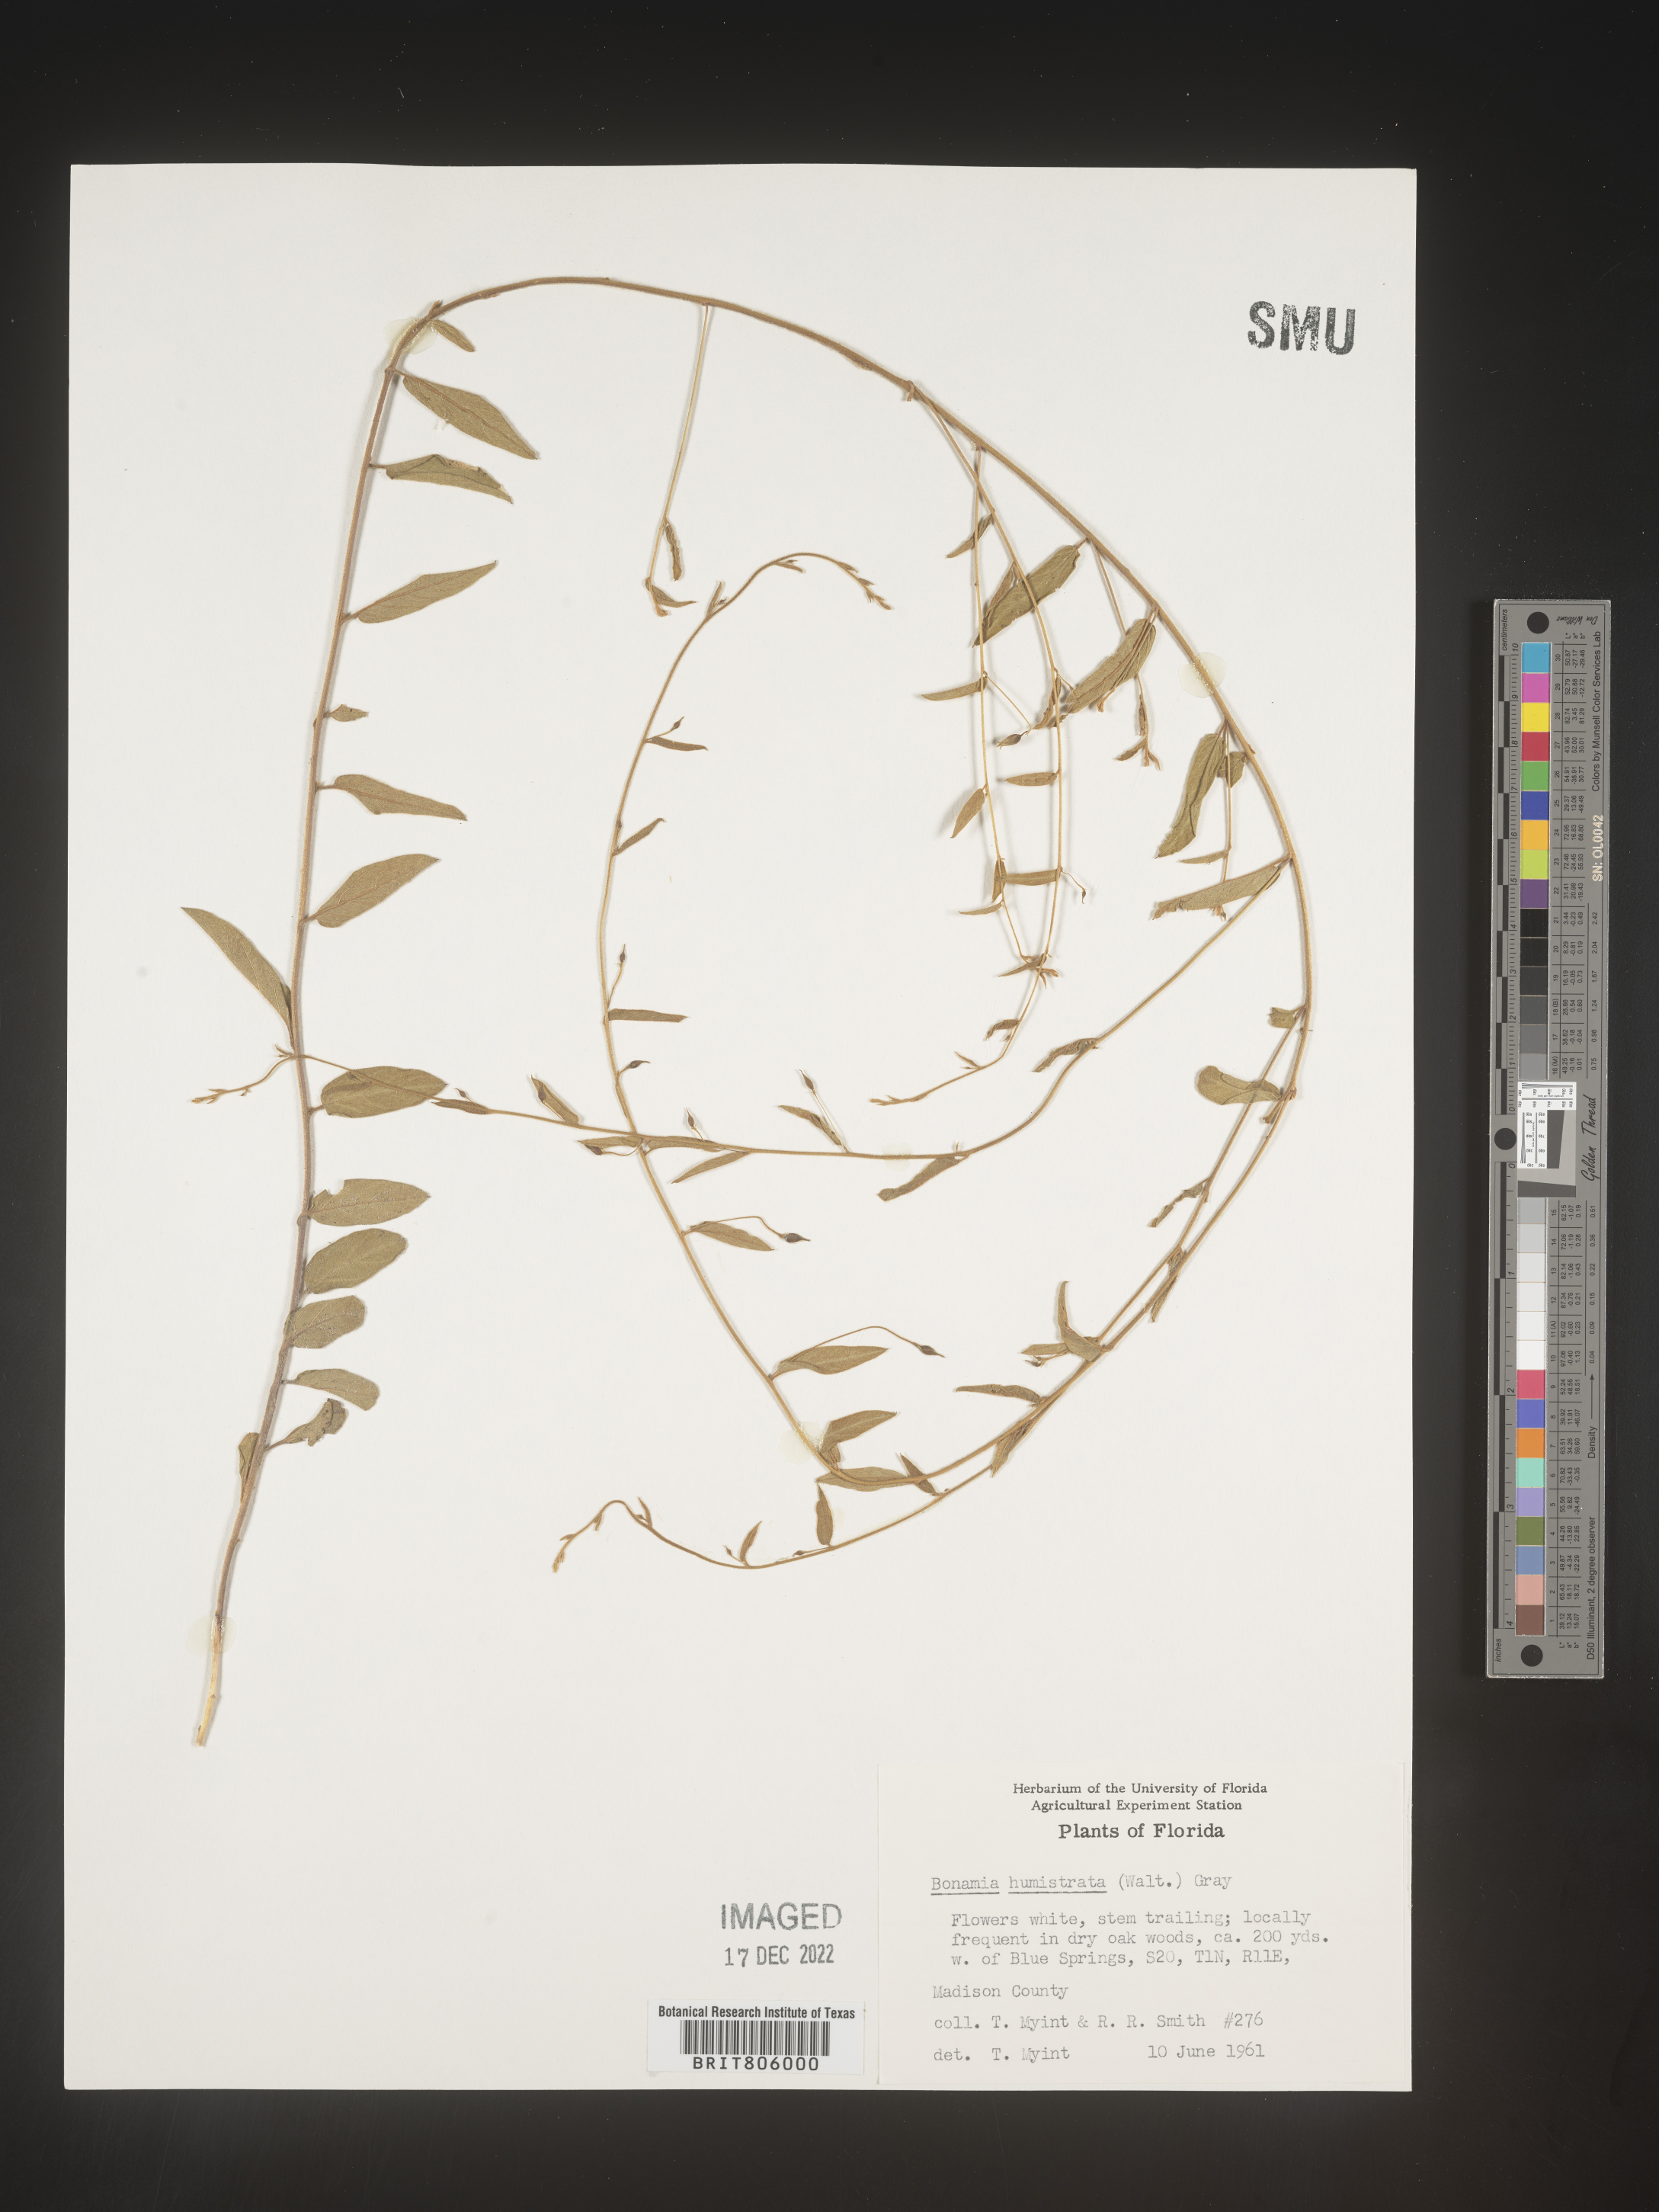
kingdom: Plantae
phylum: Tracheophyta
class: Magnoliopsida
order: Solanales
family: Convolvulaceae
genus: Stylisma
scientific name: Stylisma humistrata
